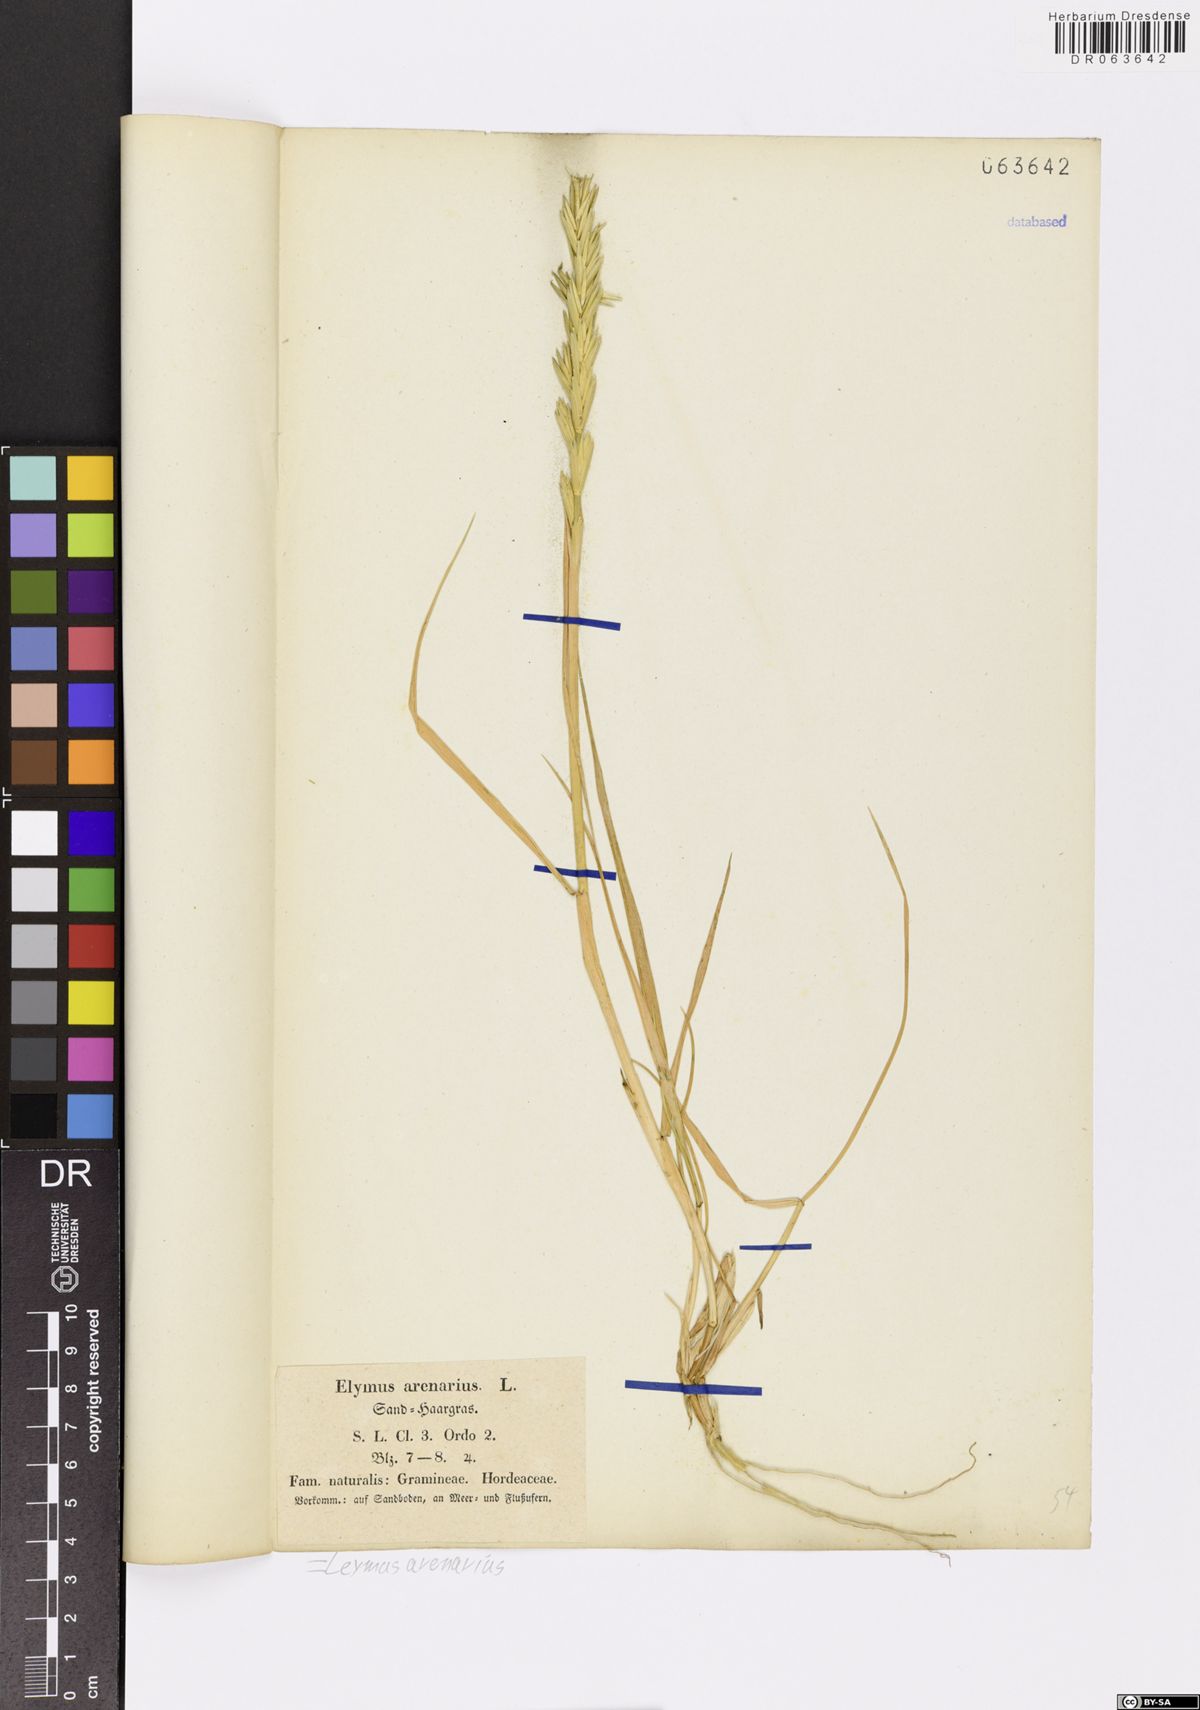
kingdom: Plantae
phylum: Tracheophyta
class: Liliopsida
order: Poales
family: Poaceae
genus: Leymus
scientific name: Leymus arenarius
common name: Lyme-grass
